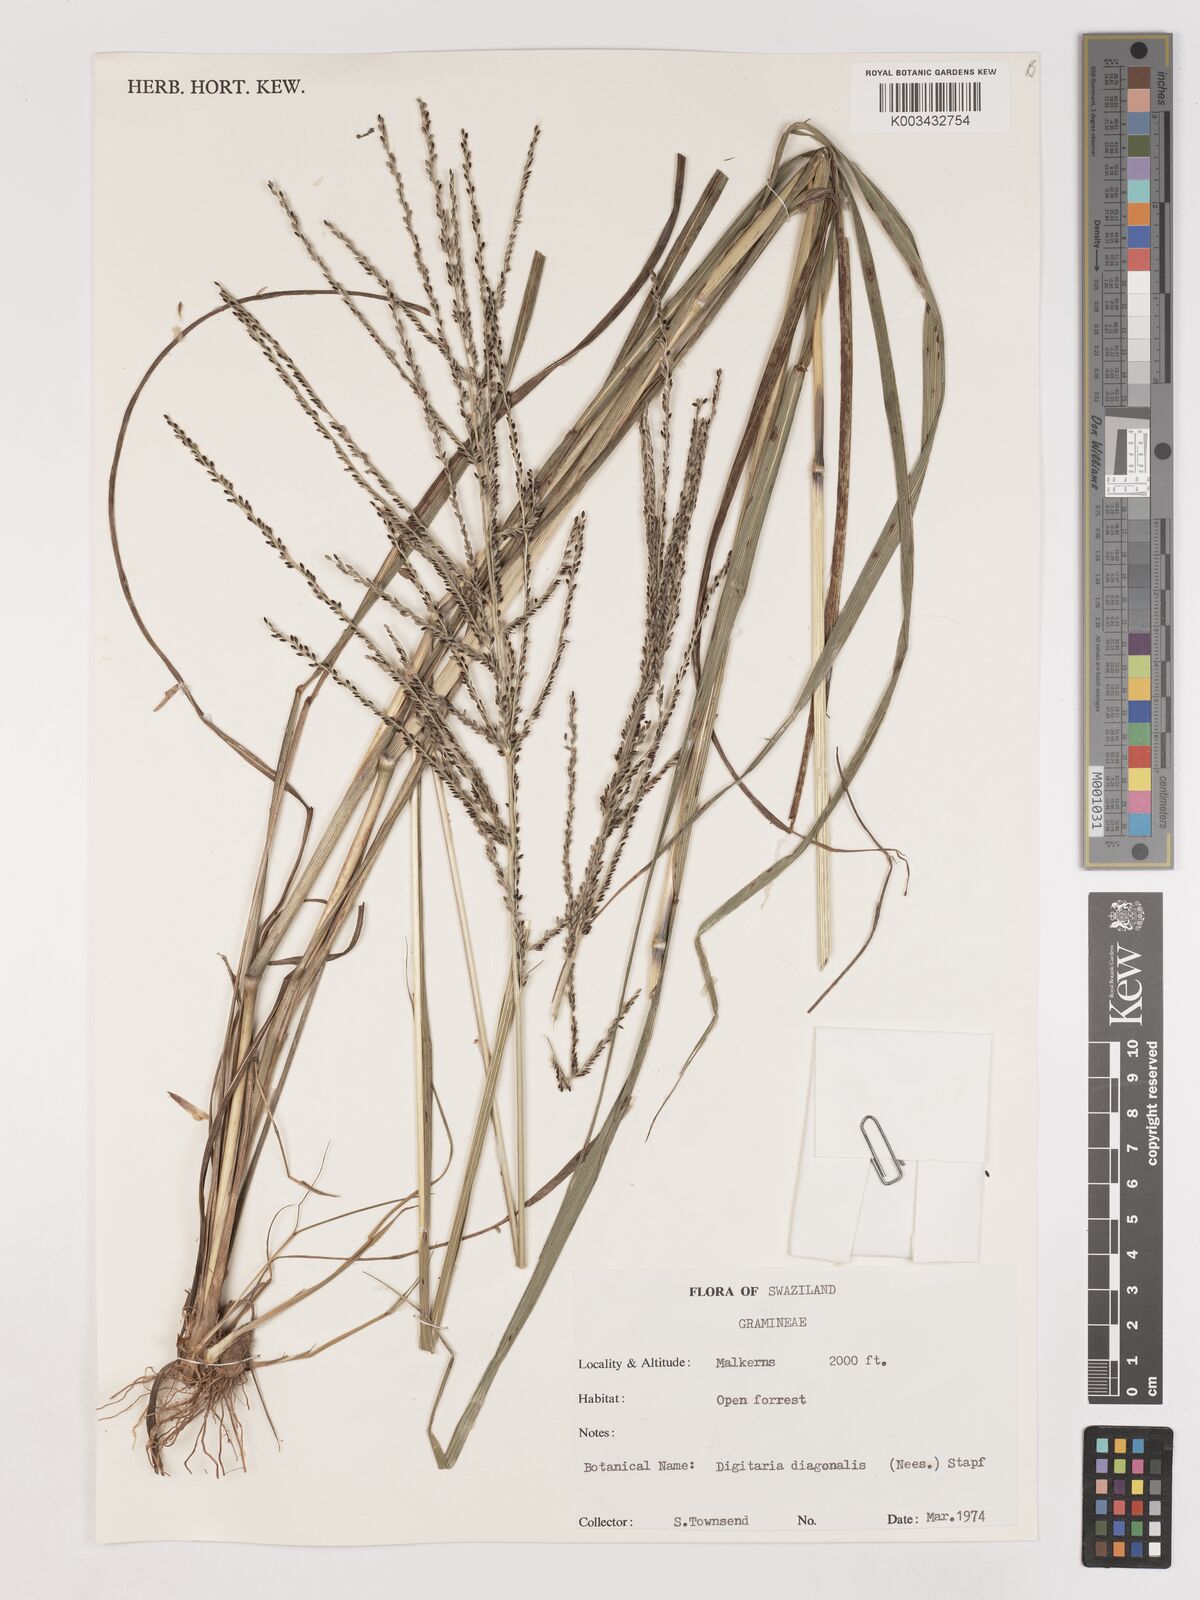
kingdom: Plantae
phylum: Tracheophyta
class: Liliopsida
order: Poales
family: Poaceae
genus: Digitaria
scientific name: Digitaria diagonalis
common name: Brown-seed finger grass
